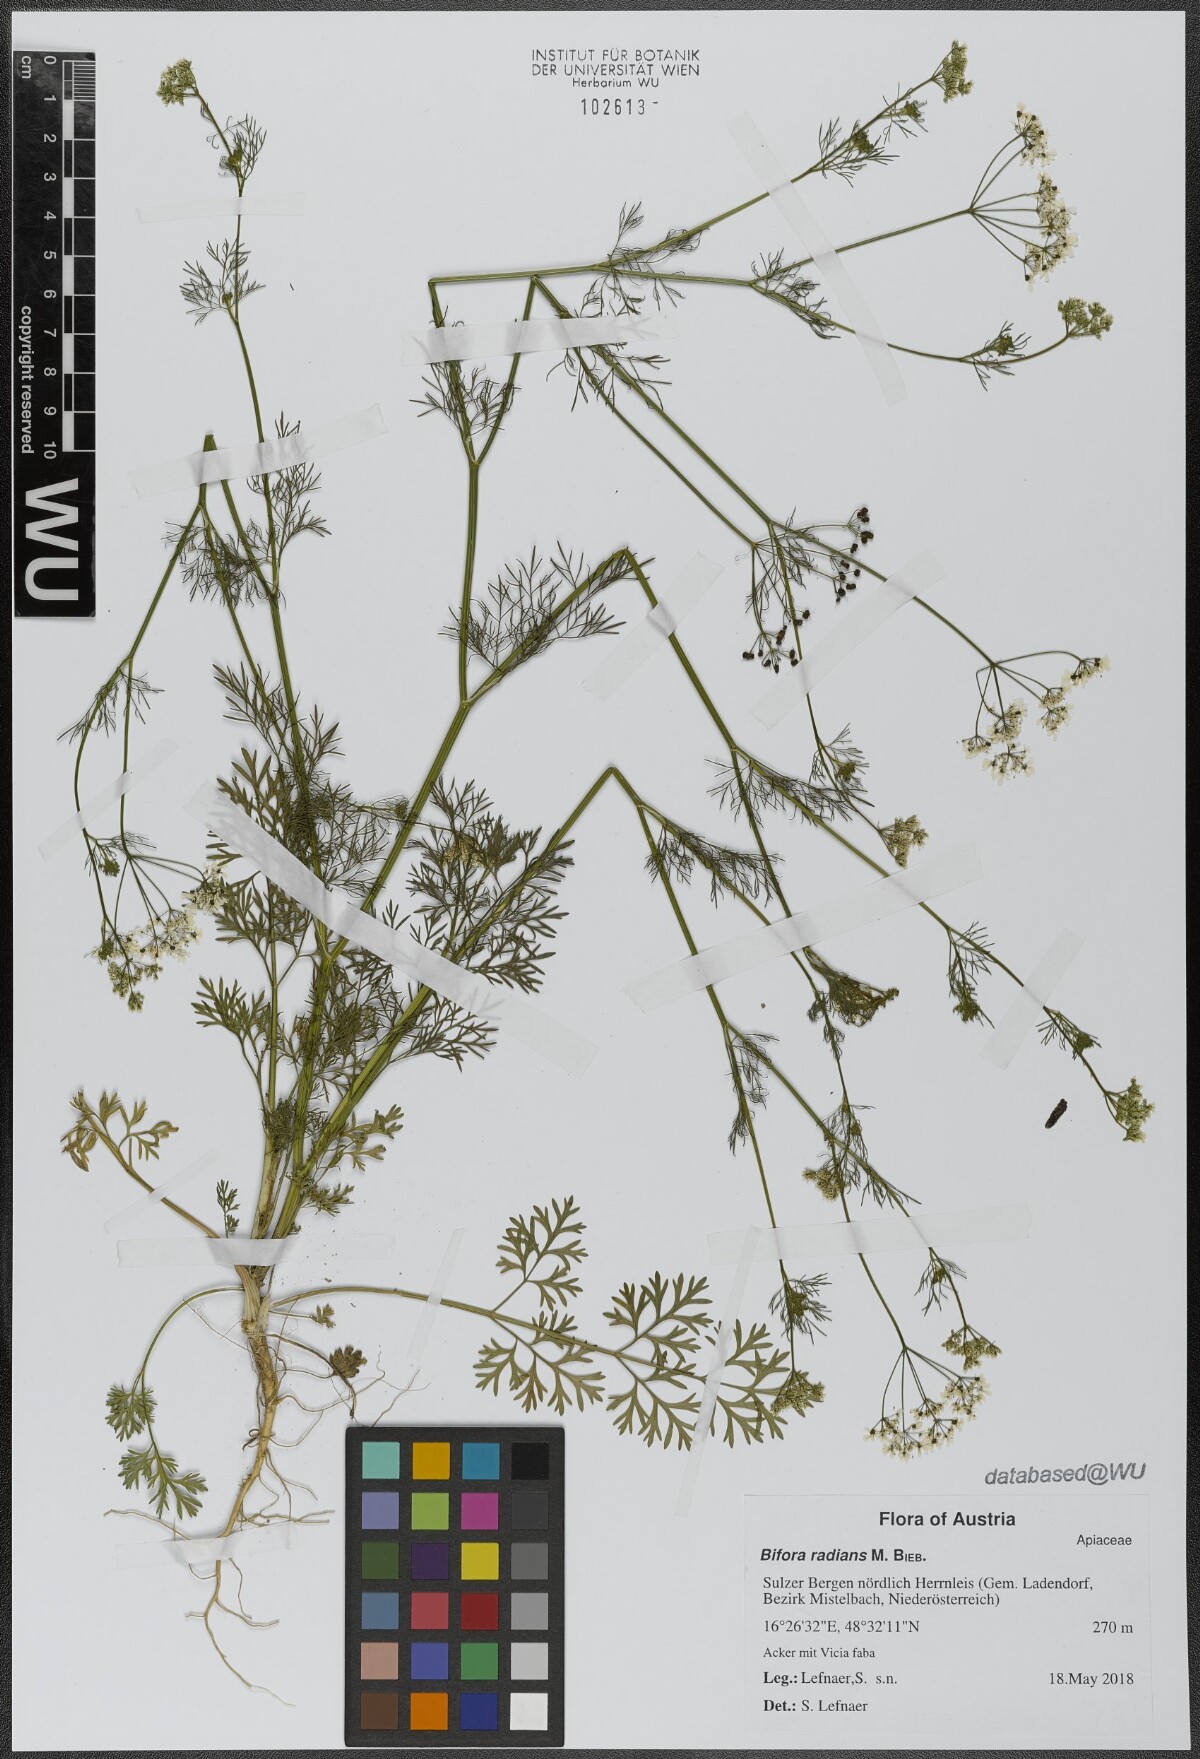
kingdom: Plantae
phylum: Tracheophyta
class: Magnoliopsida
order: Apiales
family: Apiaceae
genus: Bifora
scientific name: Bifora radians
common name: Wild bishop
